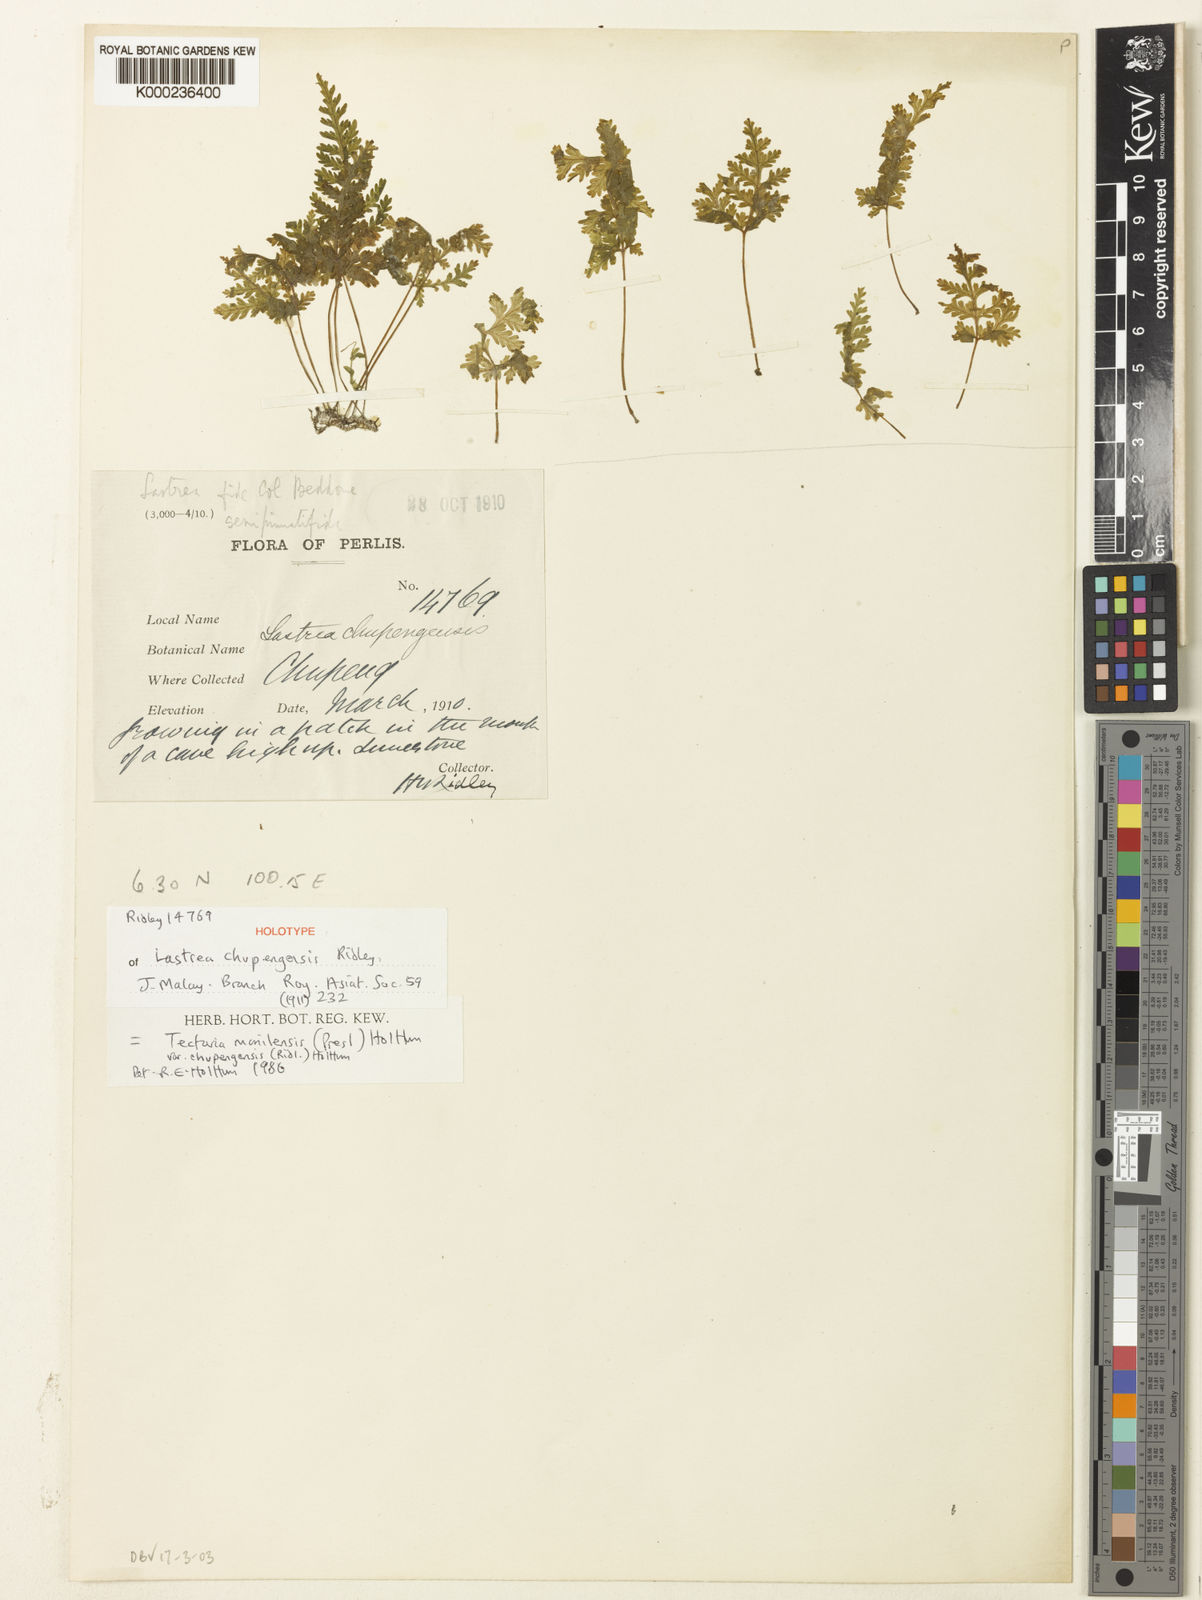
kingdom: Plantae
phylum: Tracheophyta
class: Polypodiopsida
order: Polypodiales
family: Tectariaceae
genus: Tectaria
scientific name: Tectaria manilensis
